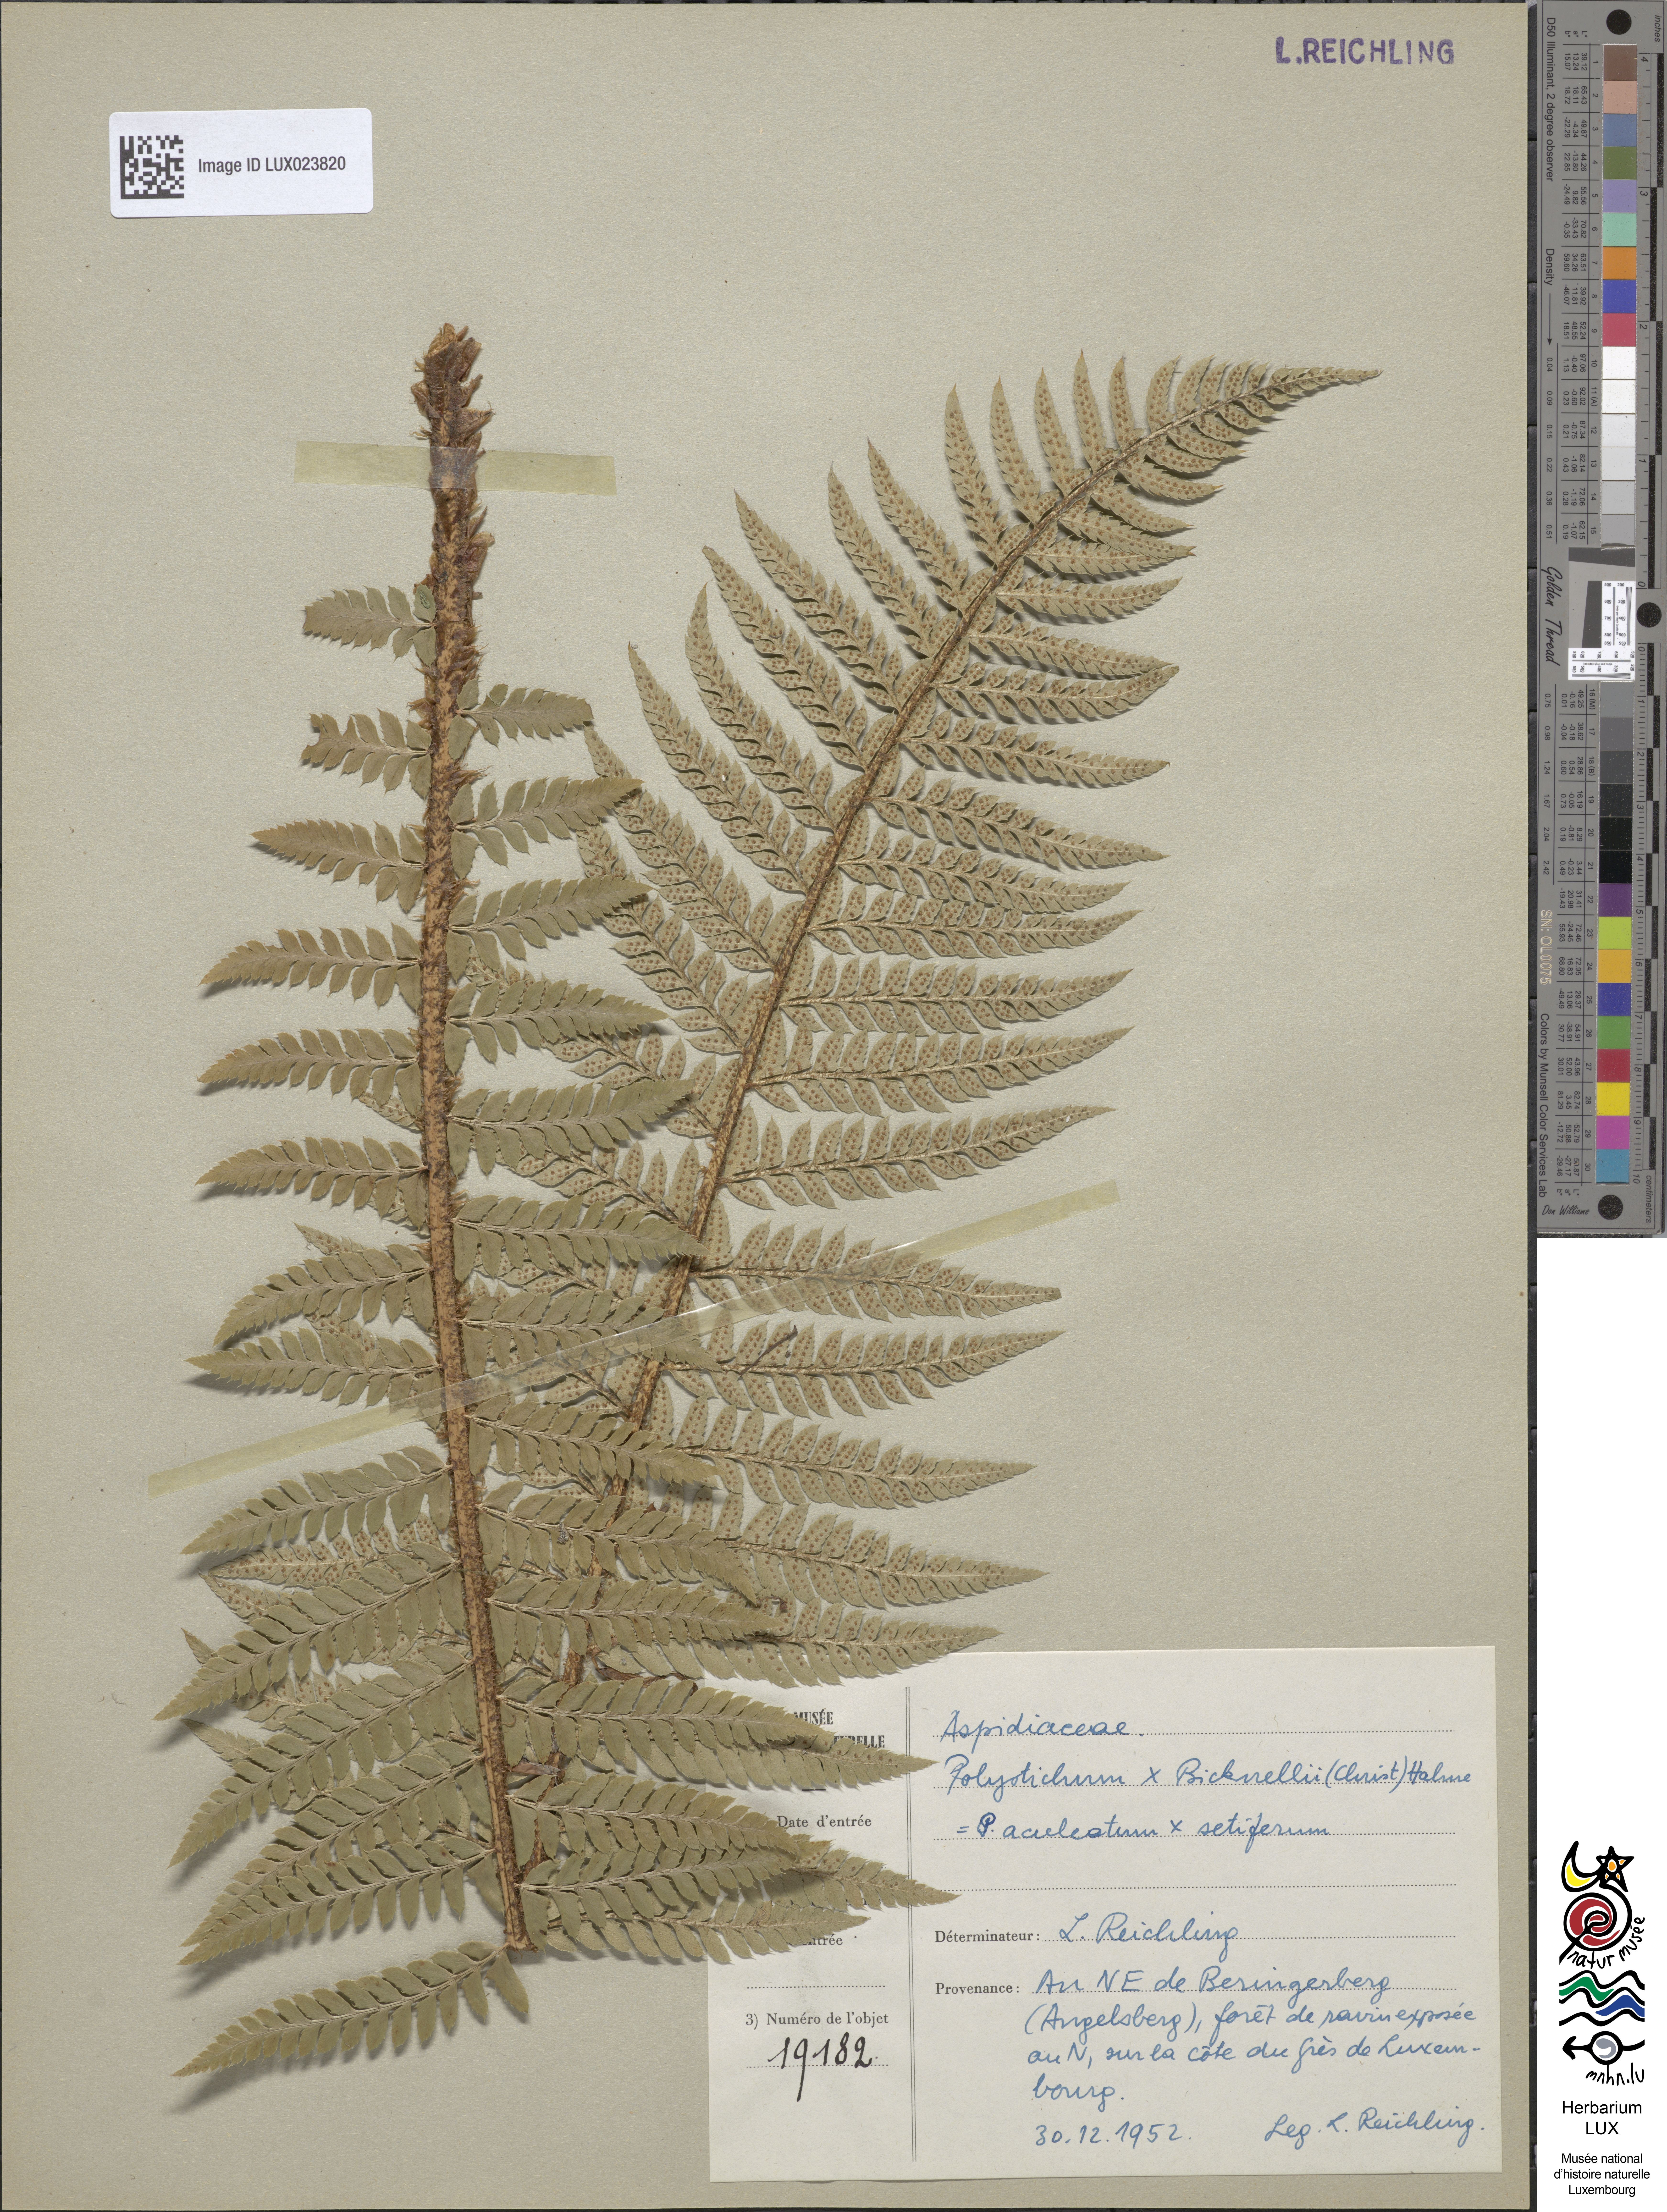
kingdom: Plantae
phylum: Tracheophyta
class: Polypodiopsida
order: Polypodiales
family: Dryopteridaceae
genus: Polystichum
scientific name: Polystichum
